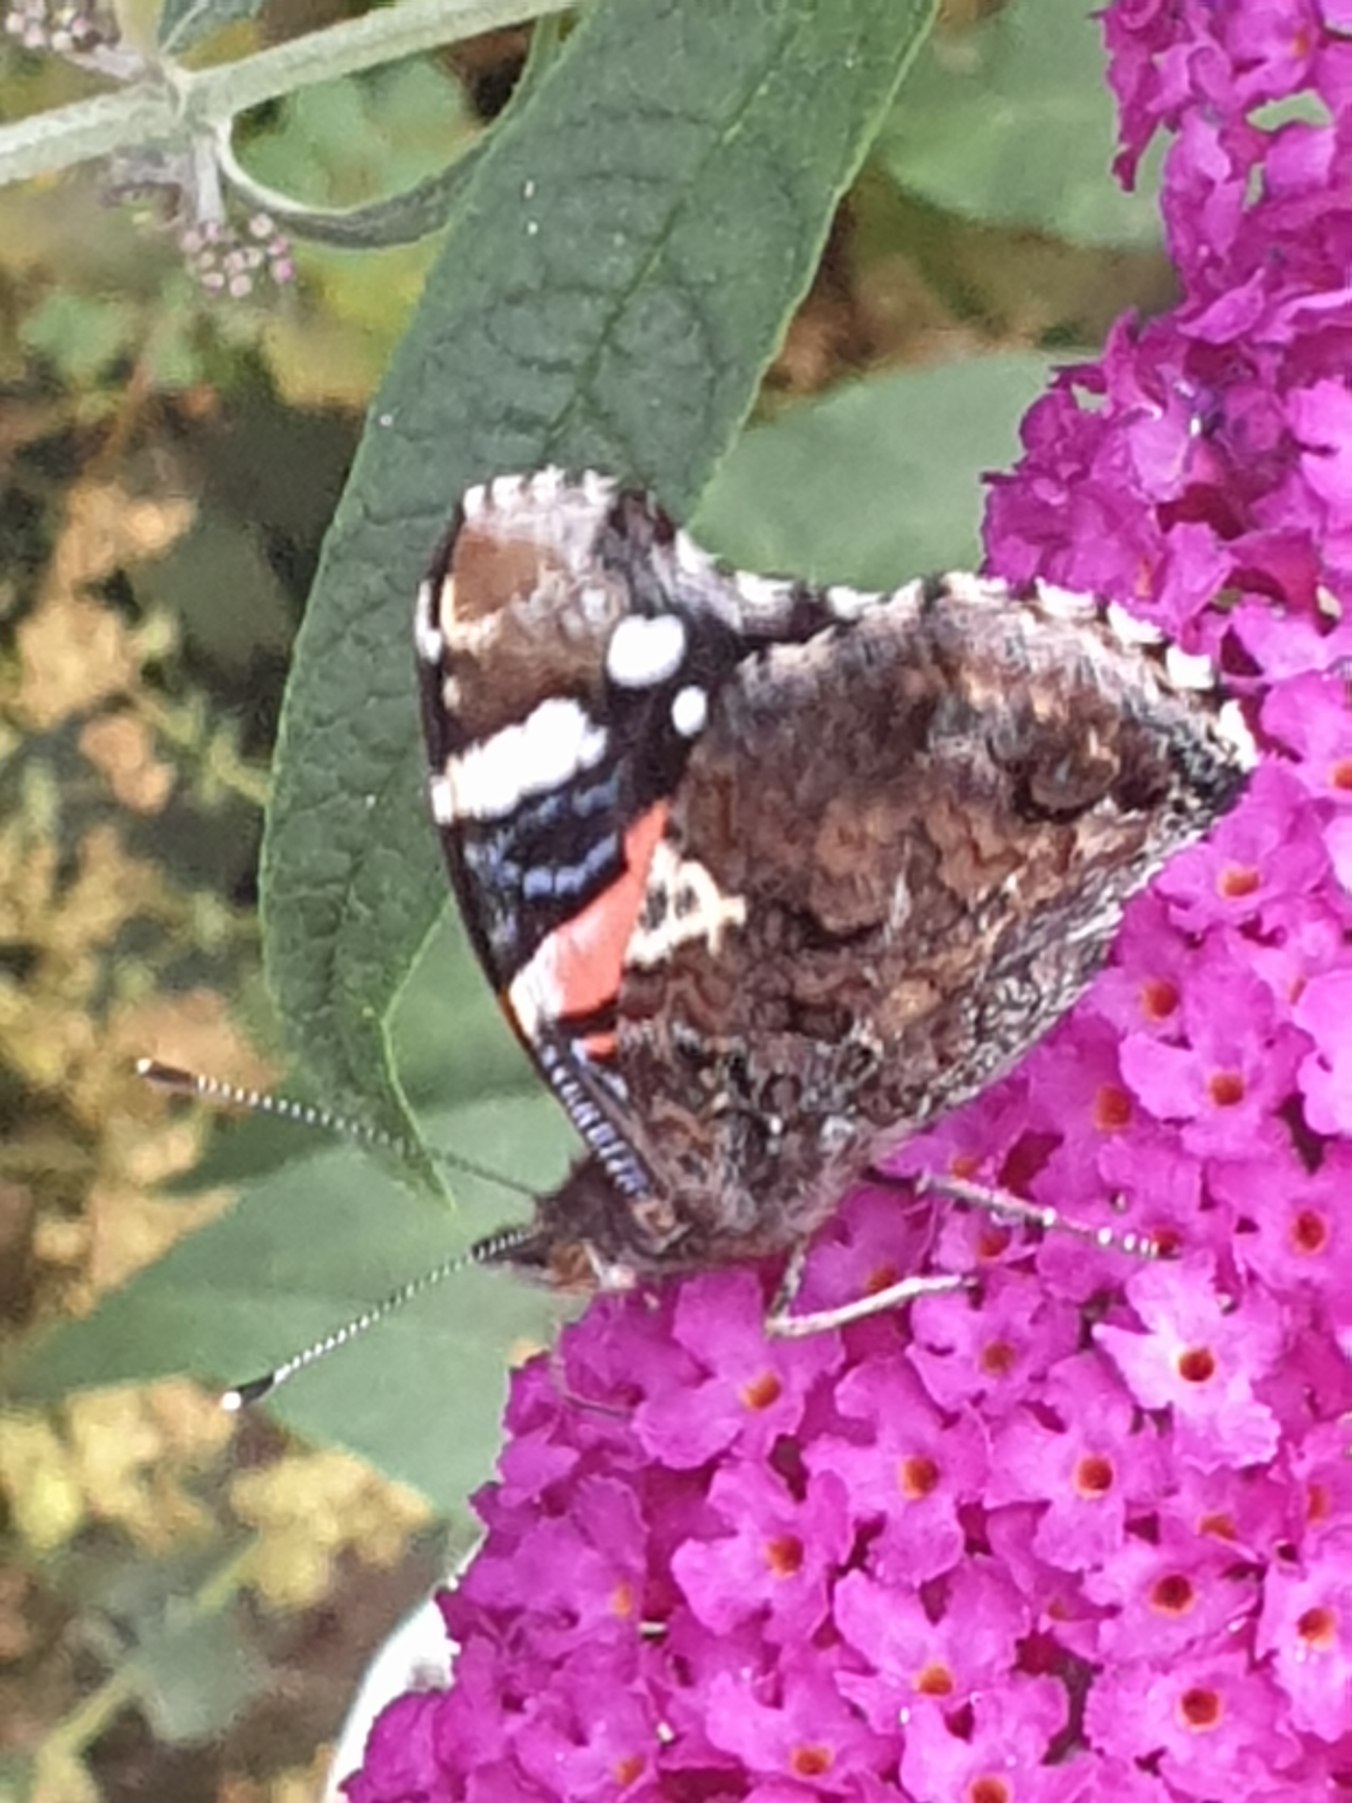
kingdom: Animalia
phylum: Arthropoda
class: Insecta
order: Lepidoptera
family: Nymphalidae
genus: Vanessa
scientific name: Vanessa atalanta
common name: Admiral
